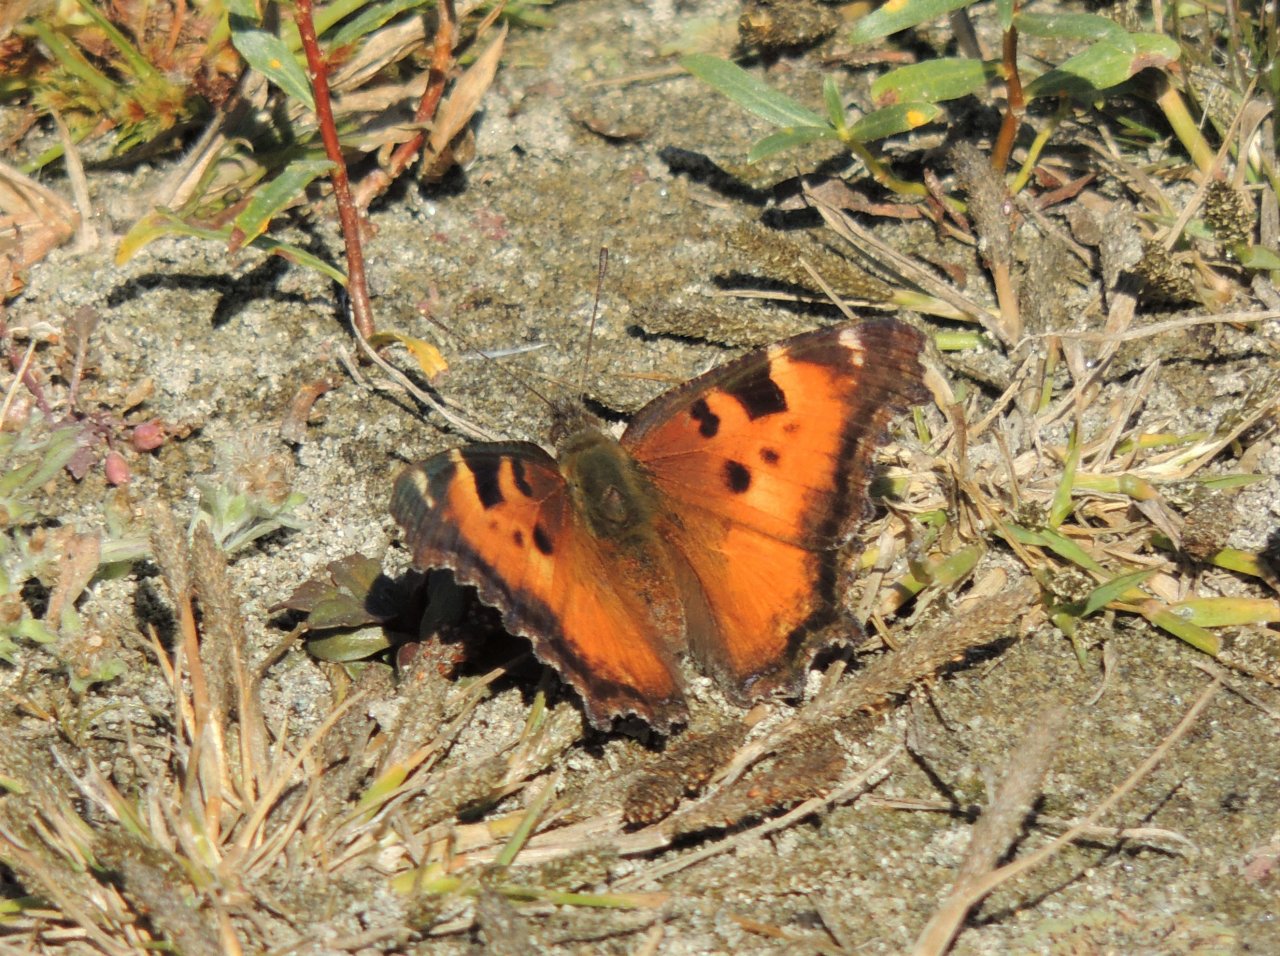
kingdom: Animalia
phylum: Arthropoda
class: Insecta
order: Lepidoptera
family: Nymphalidae
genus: Nymphalis
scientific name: Nymphalis californica
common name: California Tortoiseshell
